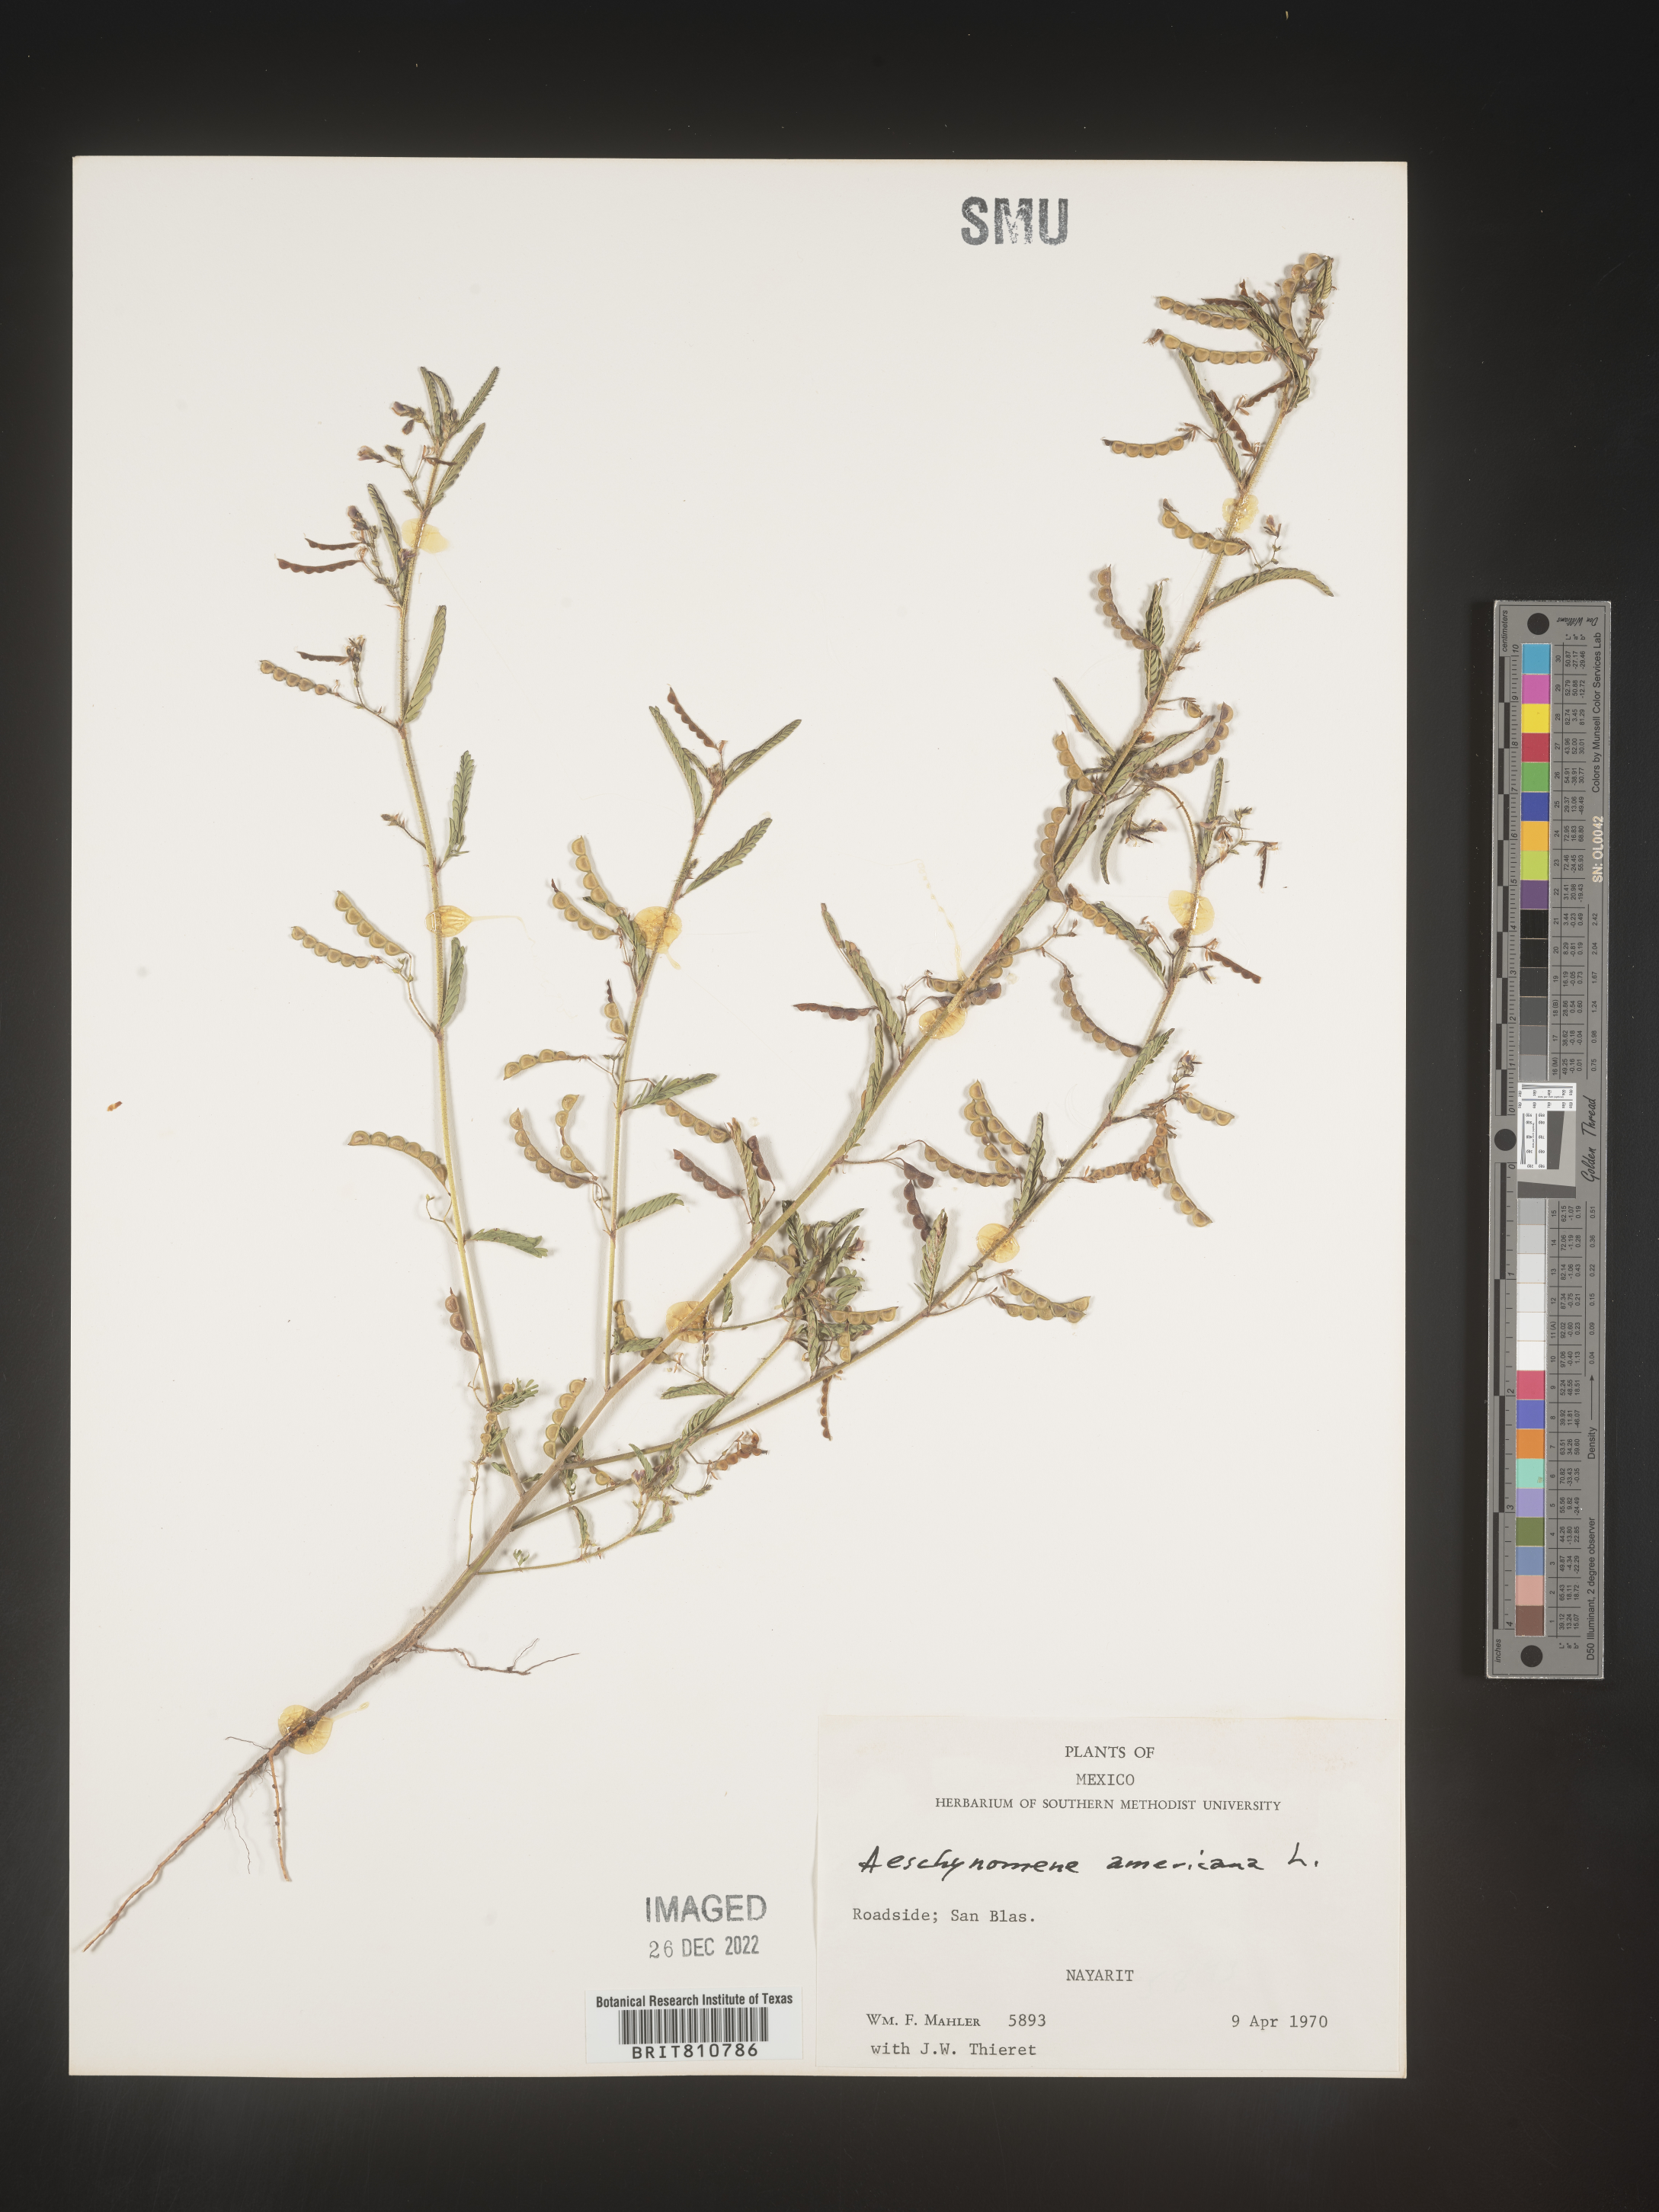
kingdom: Plantae
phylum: Tracheophyta
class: Magnoliopsida
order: Fabales
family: Fabaceae
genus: Aeschynomene
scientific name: Aeschynomene
